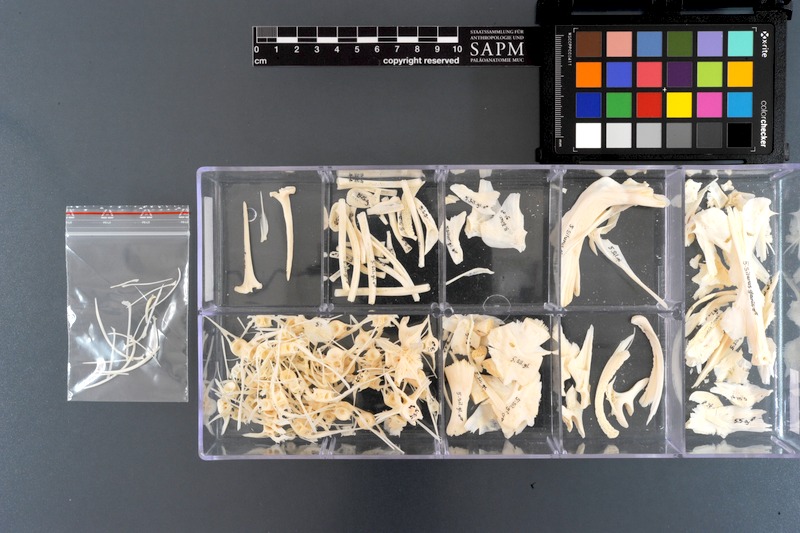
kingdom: Animalia
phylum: Chordata
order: Siluriformes
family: Siluridae
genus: Silurus
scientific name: Silurus glanis
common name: Wels
